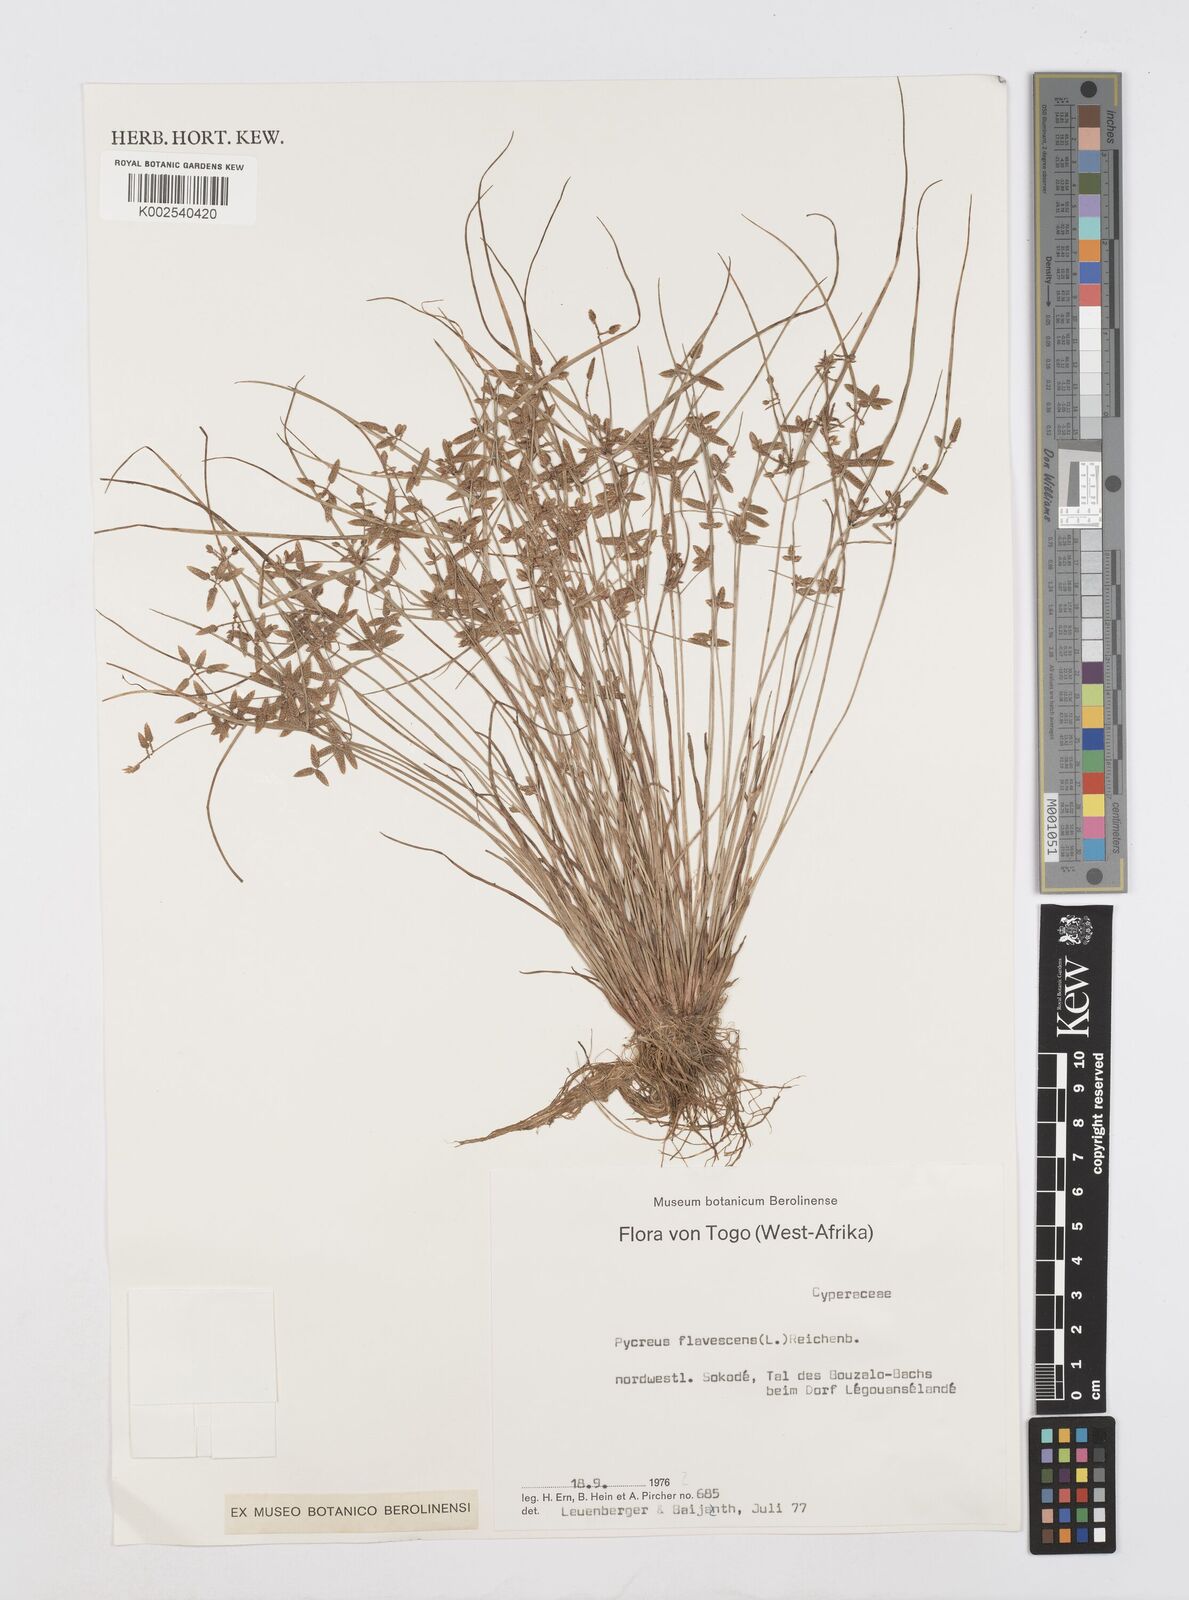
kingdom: Plantae
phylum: Tracheophyta
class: Liliopsida
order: Poales
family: Cyperaceae
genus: Cyperus
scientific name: Cyperus flavescens
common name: Yellow galingale
